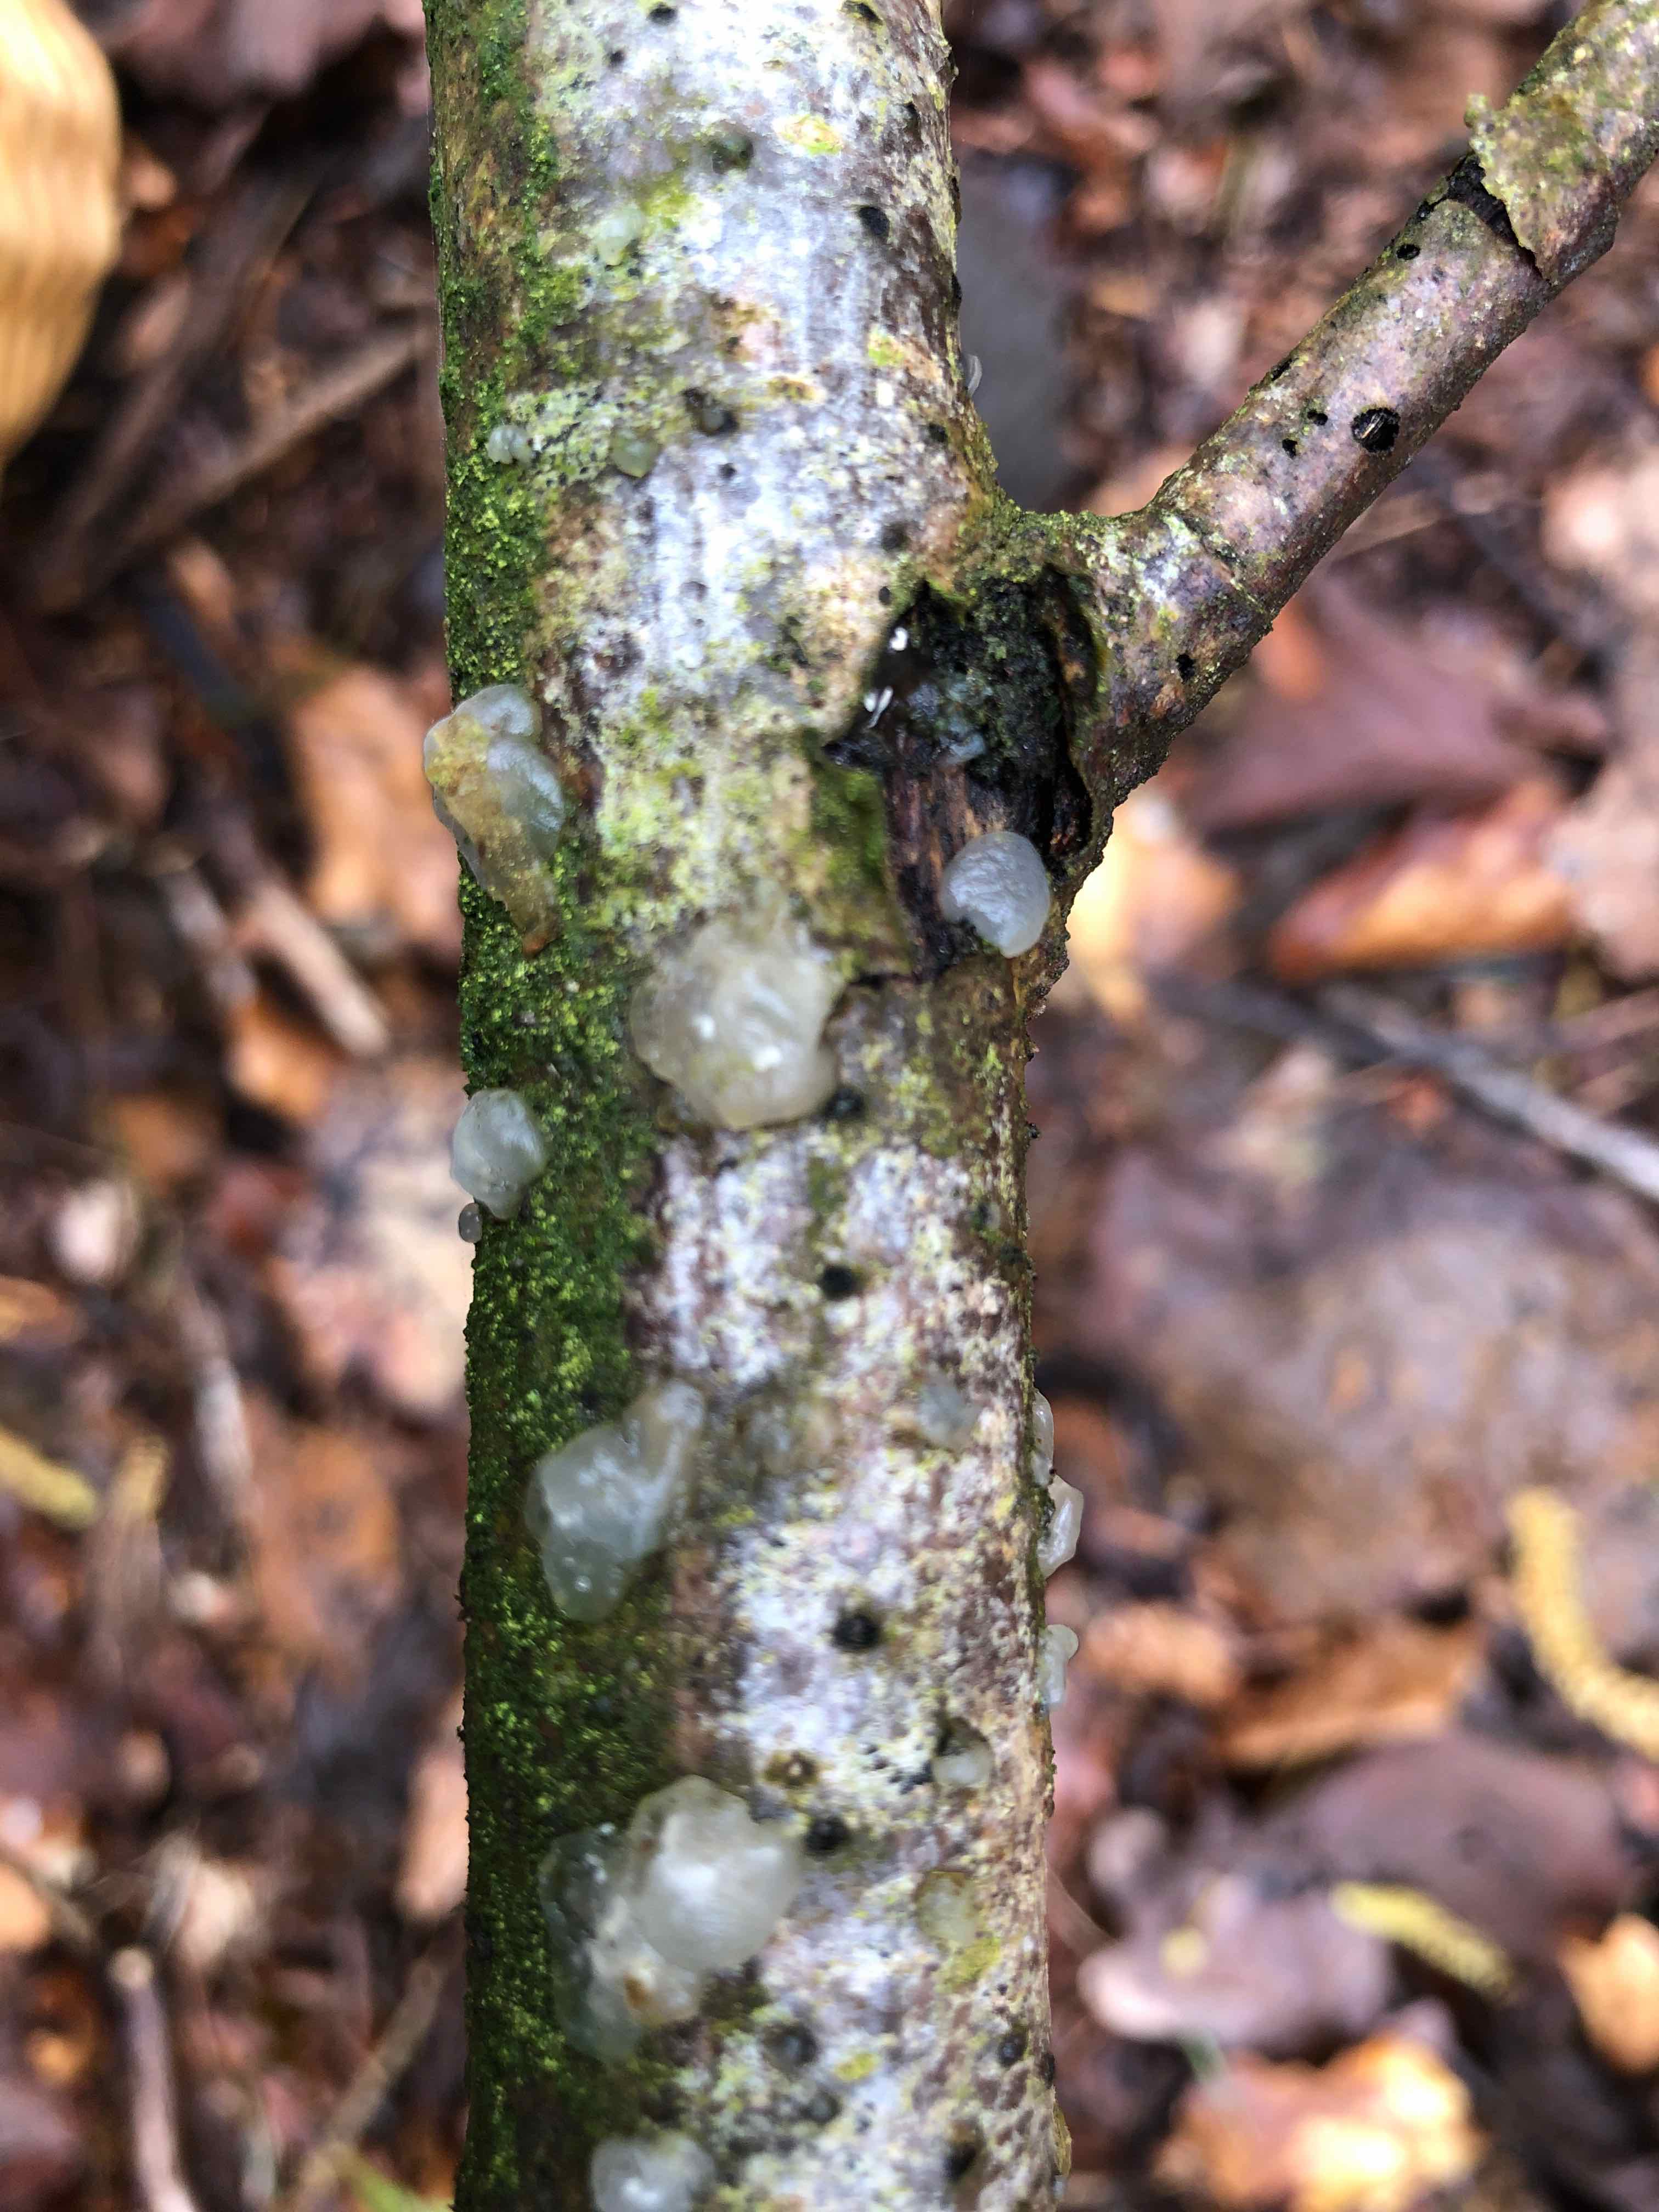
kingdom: Fungi
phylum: Basidiomycota
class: Agaricomycetes
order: Auriculariales
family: Hyaloriaceae
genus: Myxarium
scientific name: Myxarium nucleatum
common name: klar bævretop
